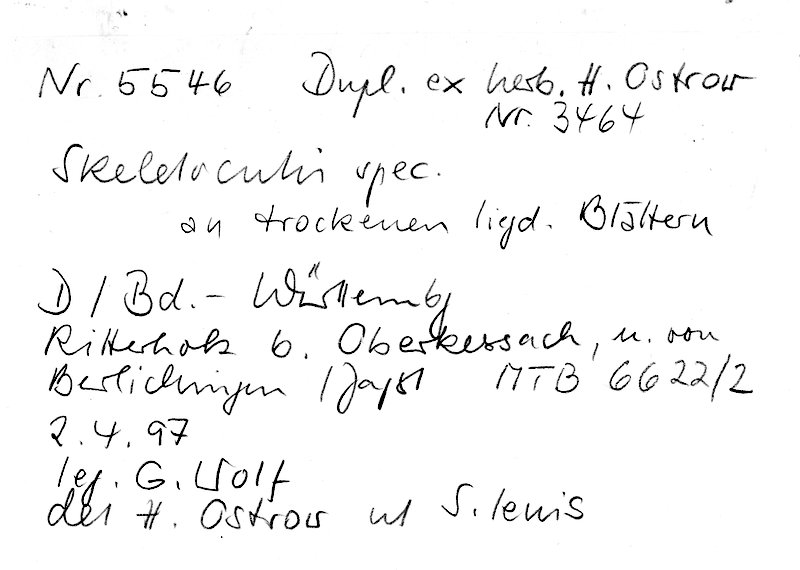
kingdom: Fungi
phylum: Basidiomycota
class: Agaricomycetes
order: Polyporales
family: Incrustoporiaceae
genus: Skeletocutis
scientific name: Skeletocutis
